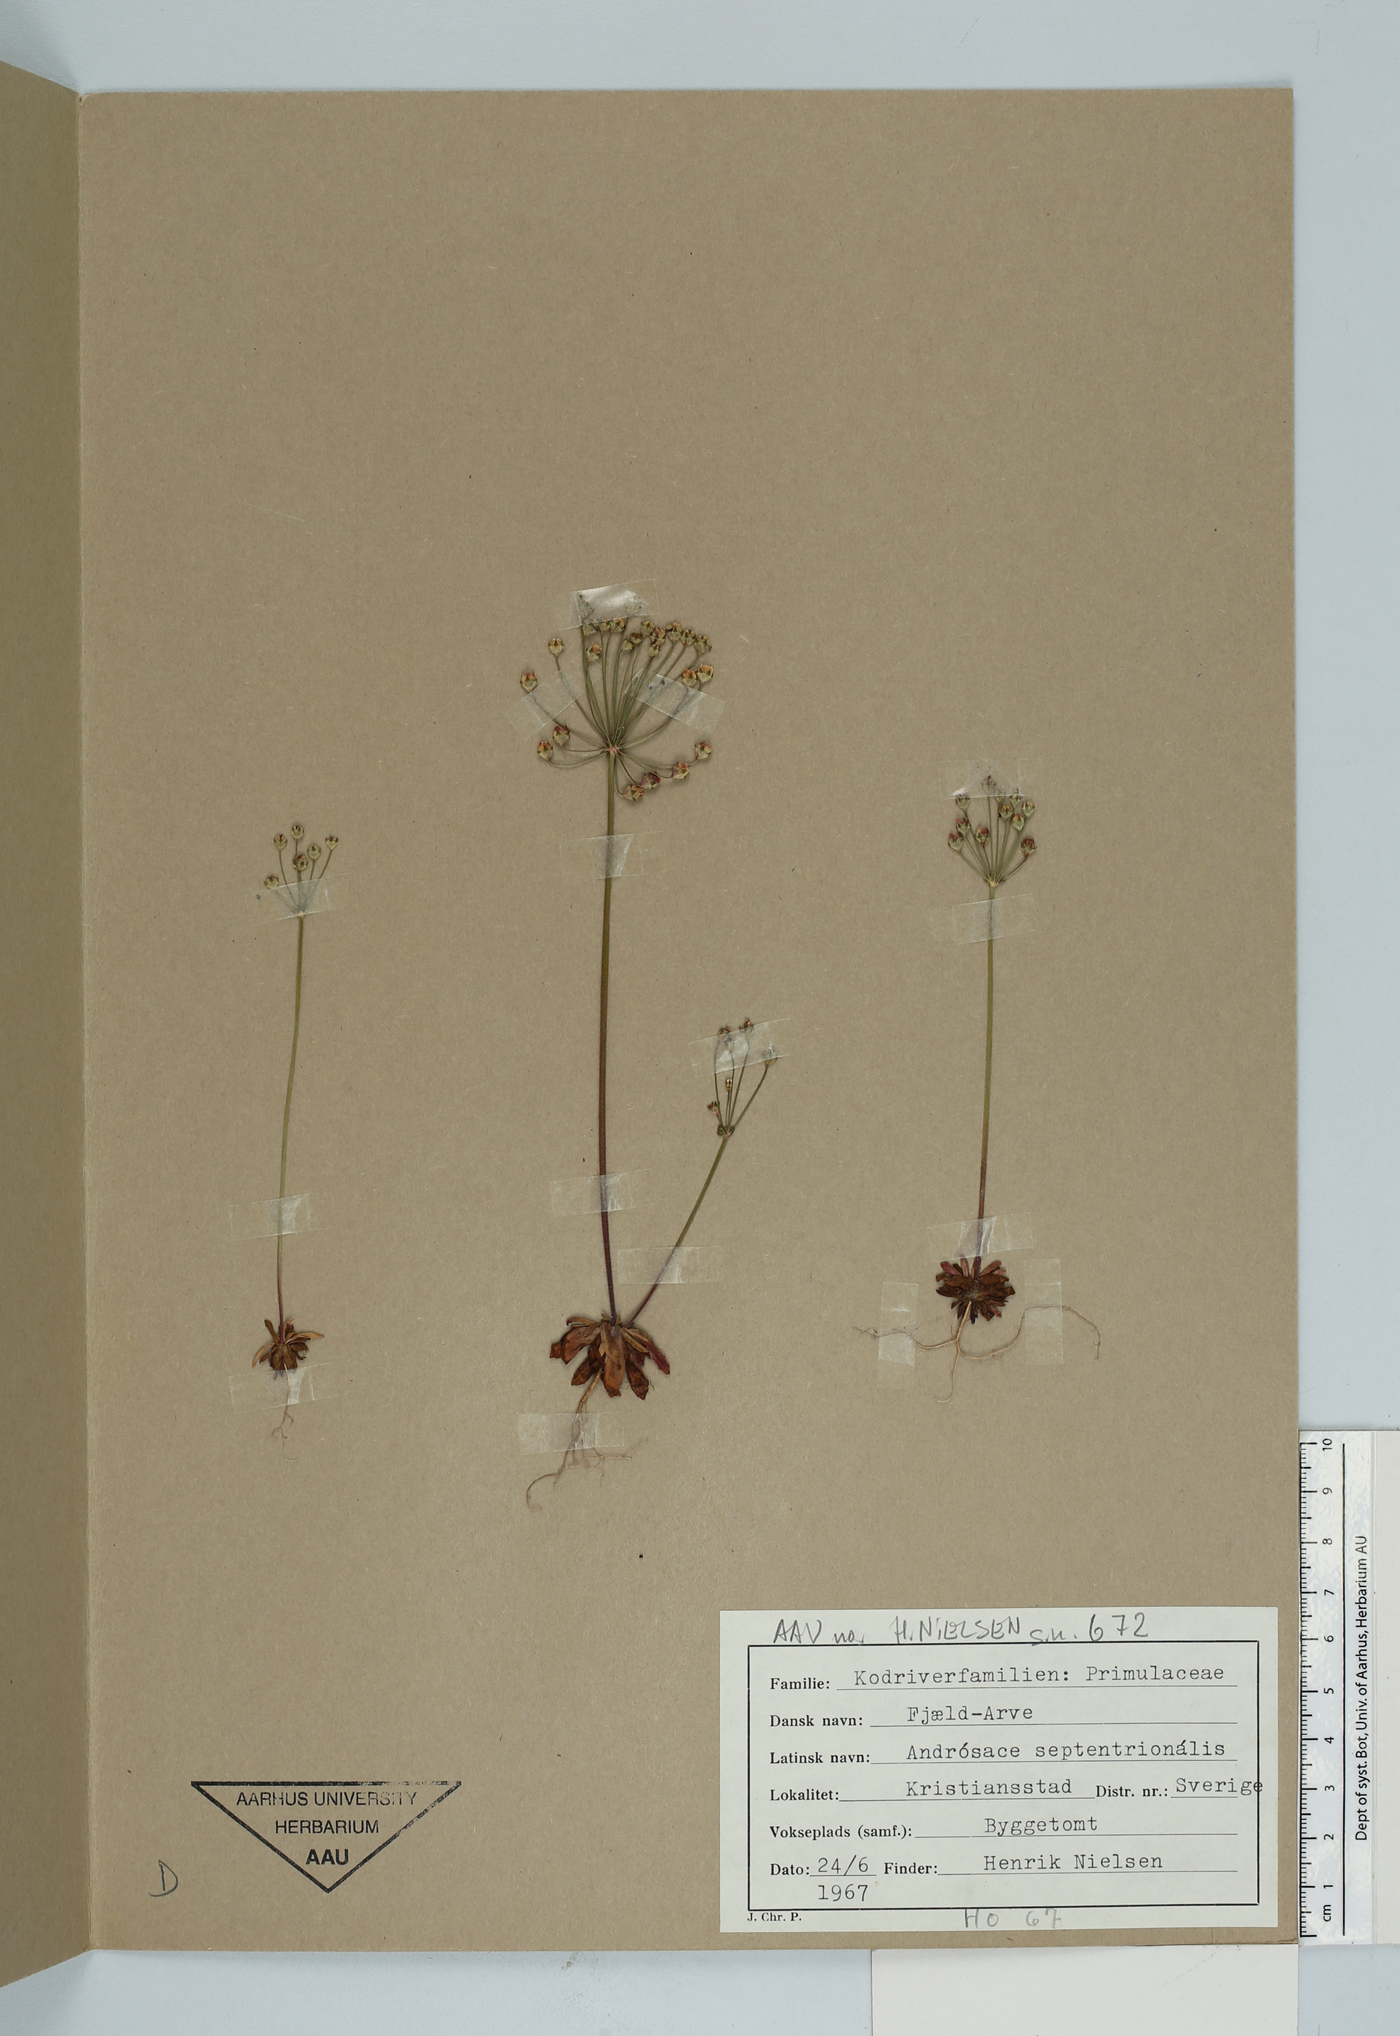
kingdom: Plantae
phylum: Tracheophyta
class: Magnoliopsida
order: Ericales
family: Primulaceae
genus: Androsace
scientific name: Androsace septentrionalis
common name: Hairy northern fairy-candelabra
